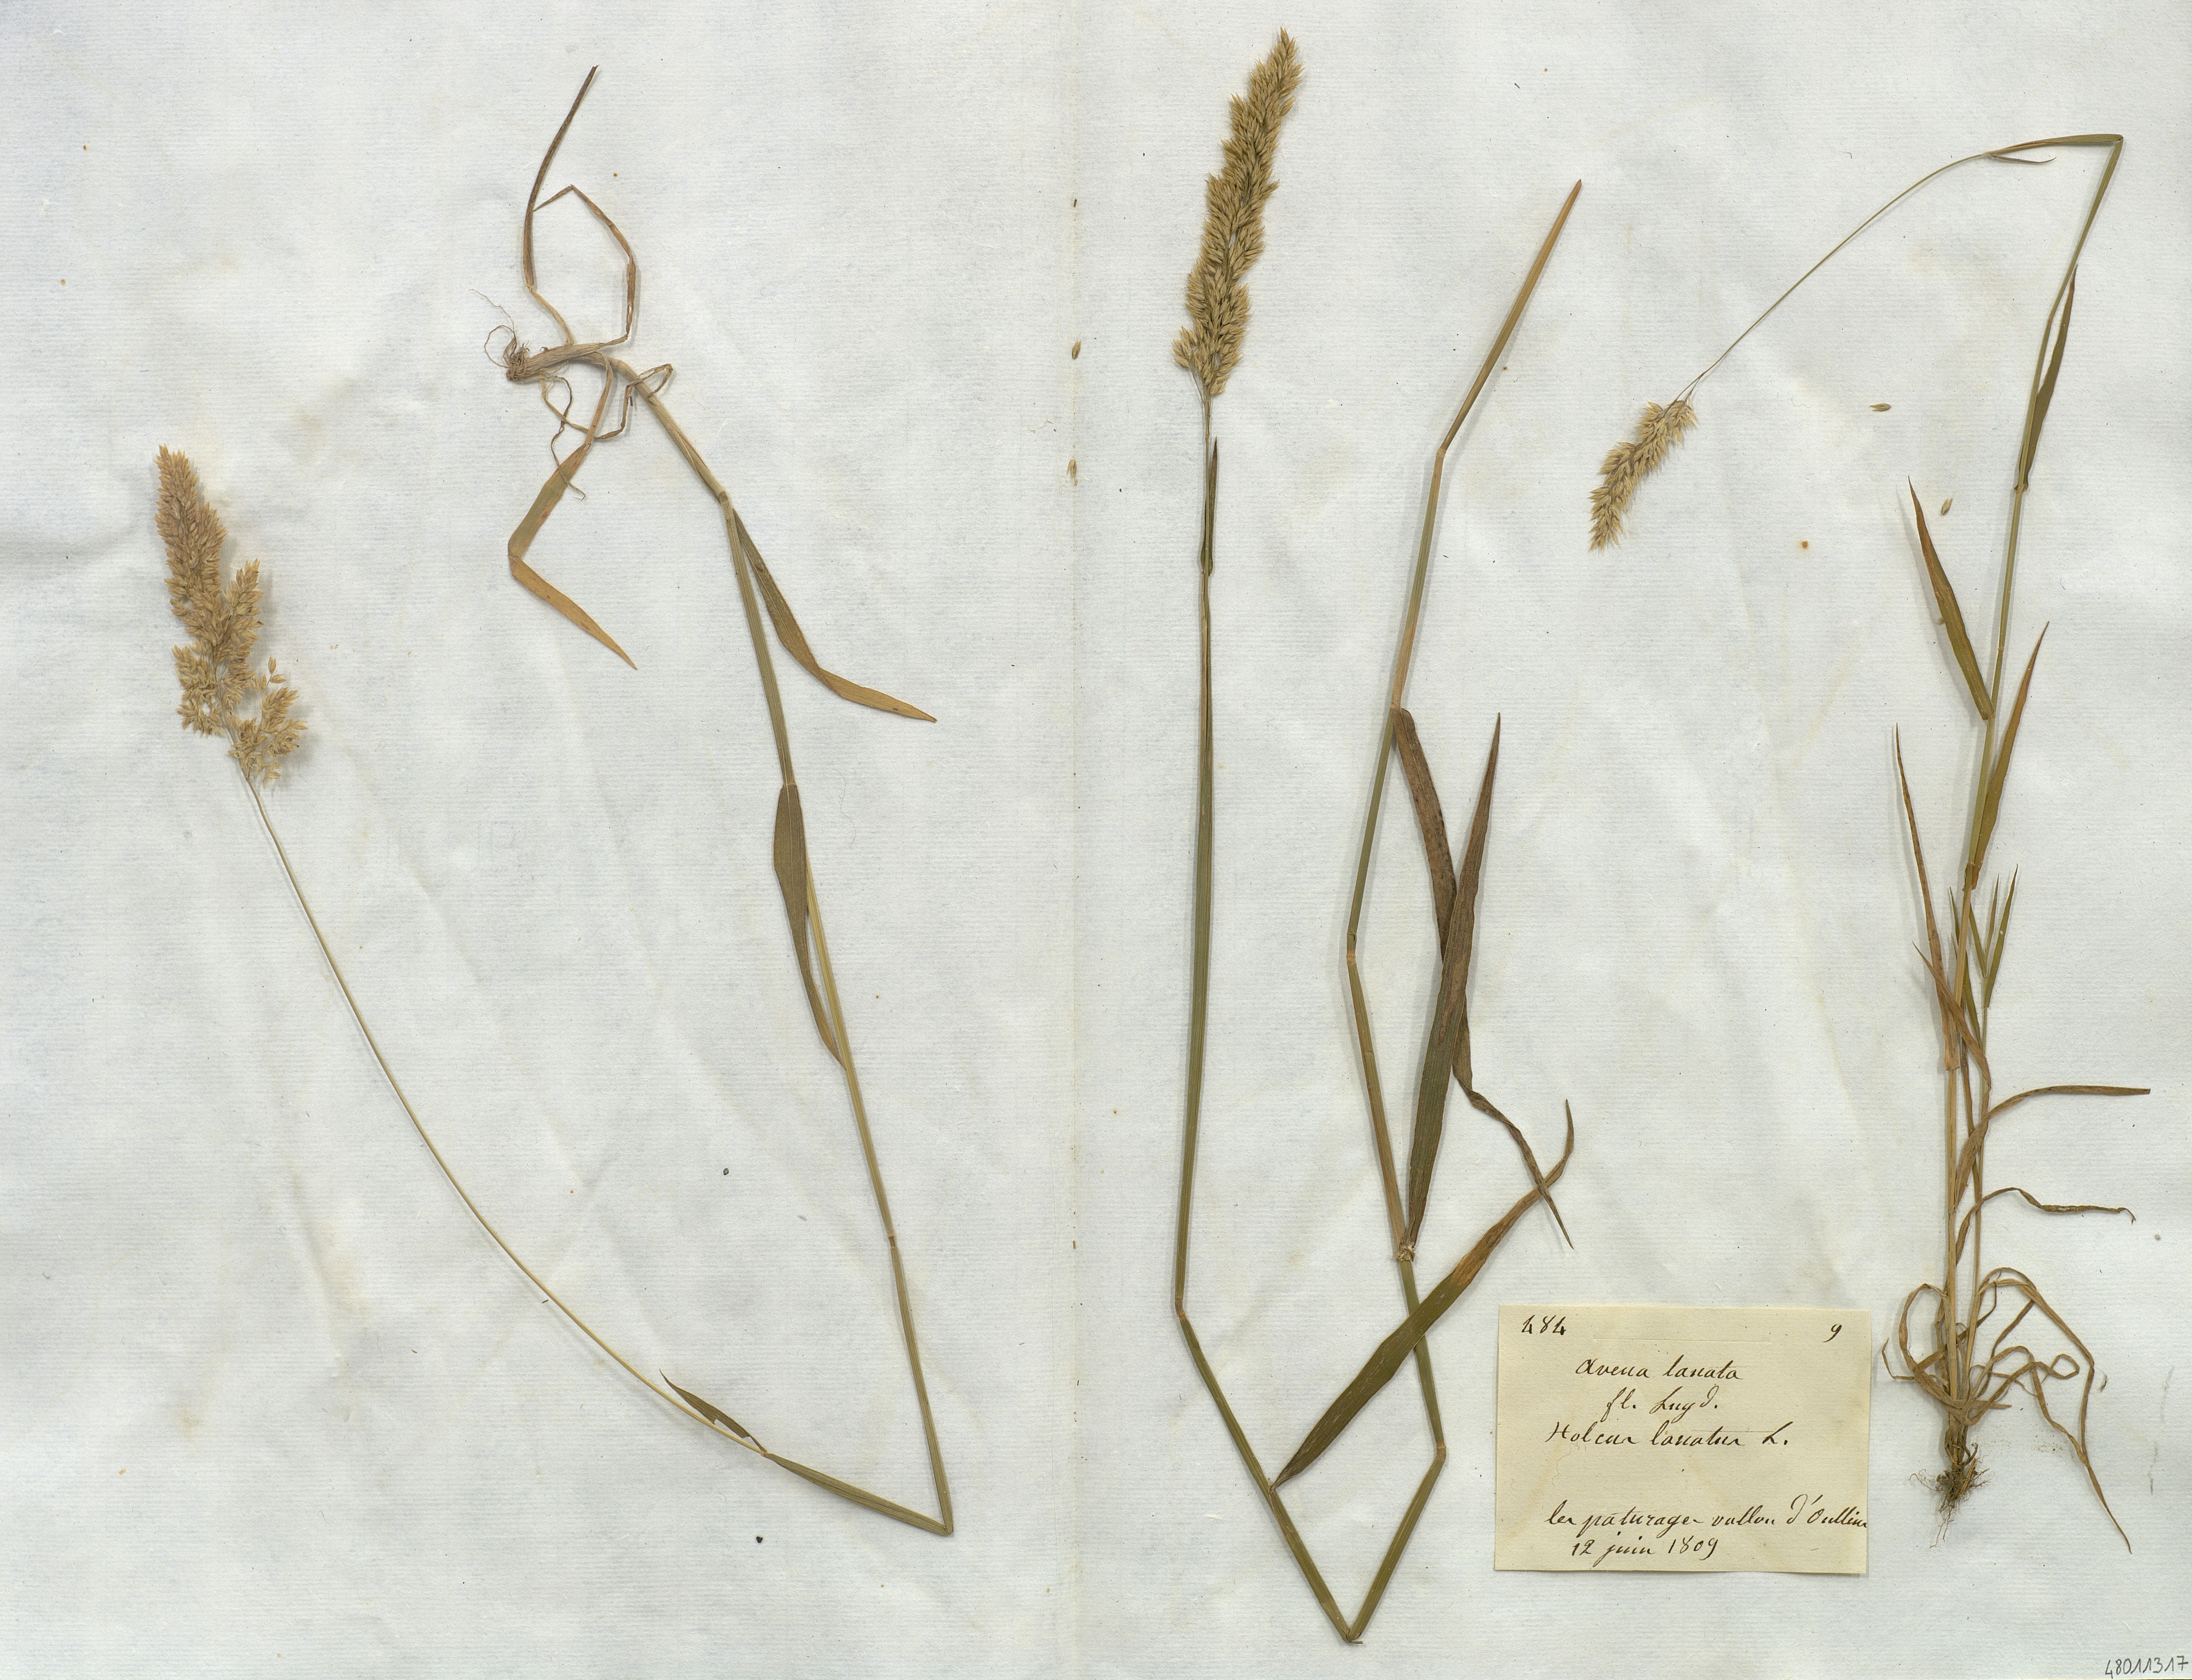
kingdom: Plantae
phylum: Tracheophyta
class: Liliopsida
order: Poales
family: Poaceae
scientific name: Poaceae
